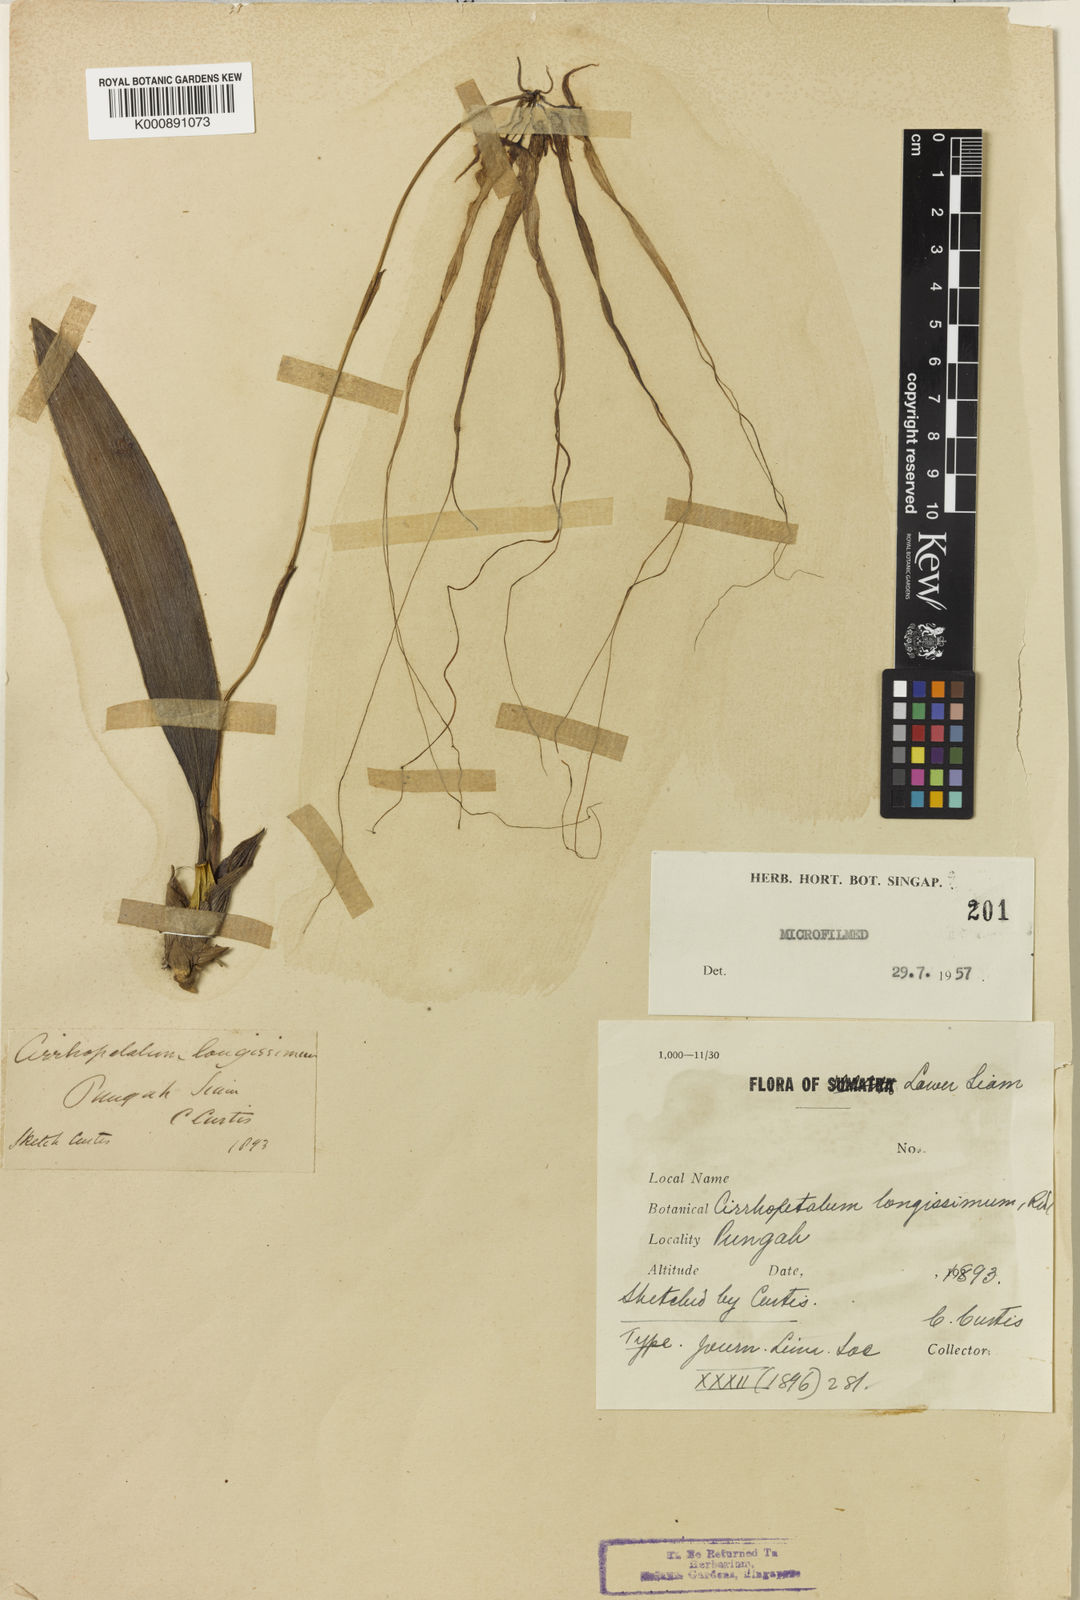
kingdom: Plantae
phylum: Tracheophyta
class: Liliopsida
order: Asparagales
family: Orchidaceae
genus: Bulbophyllum
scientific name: Bulbophyllum longissimum
